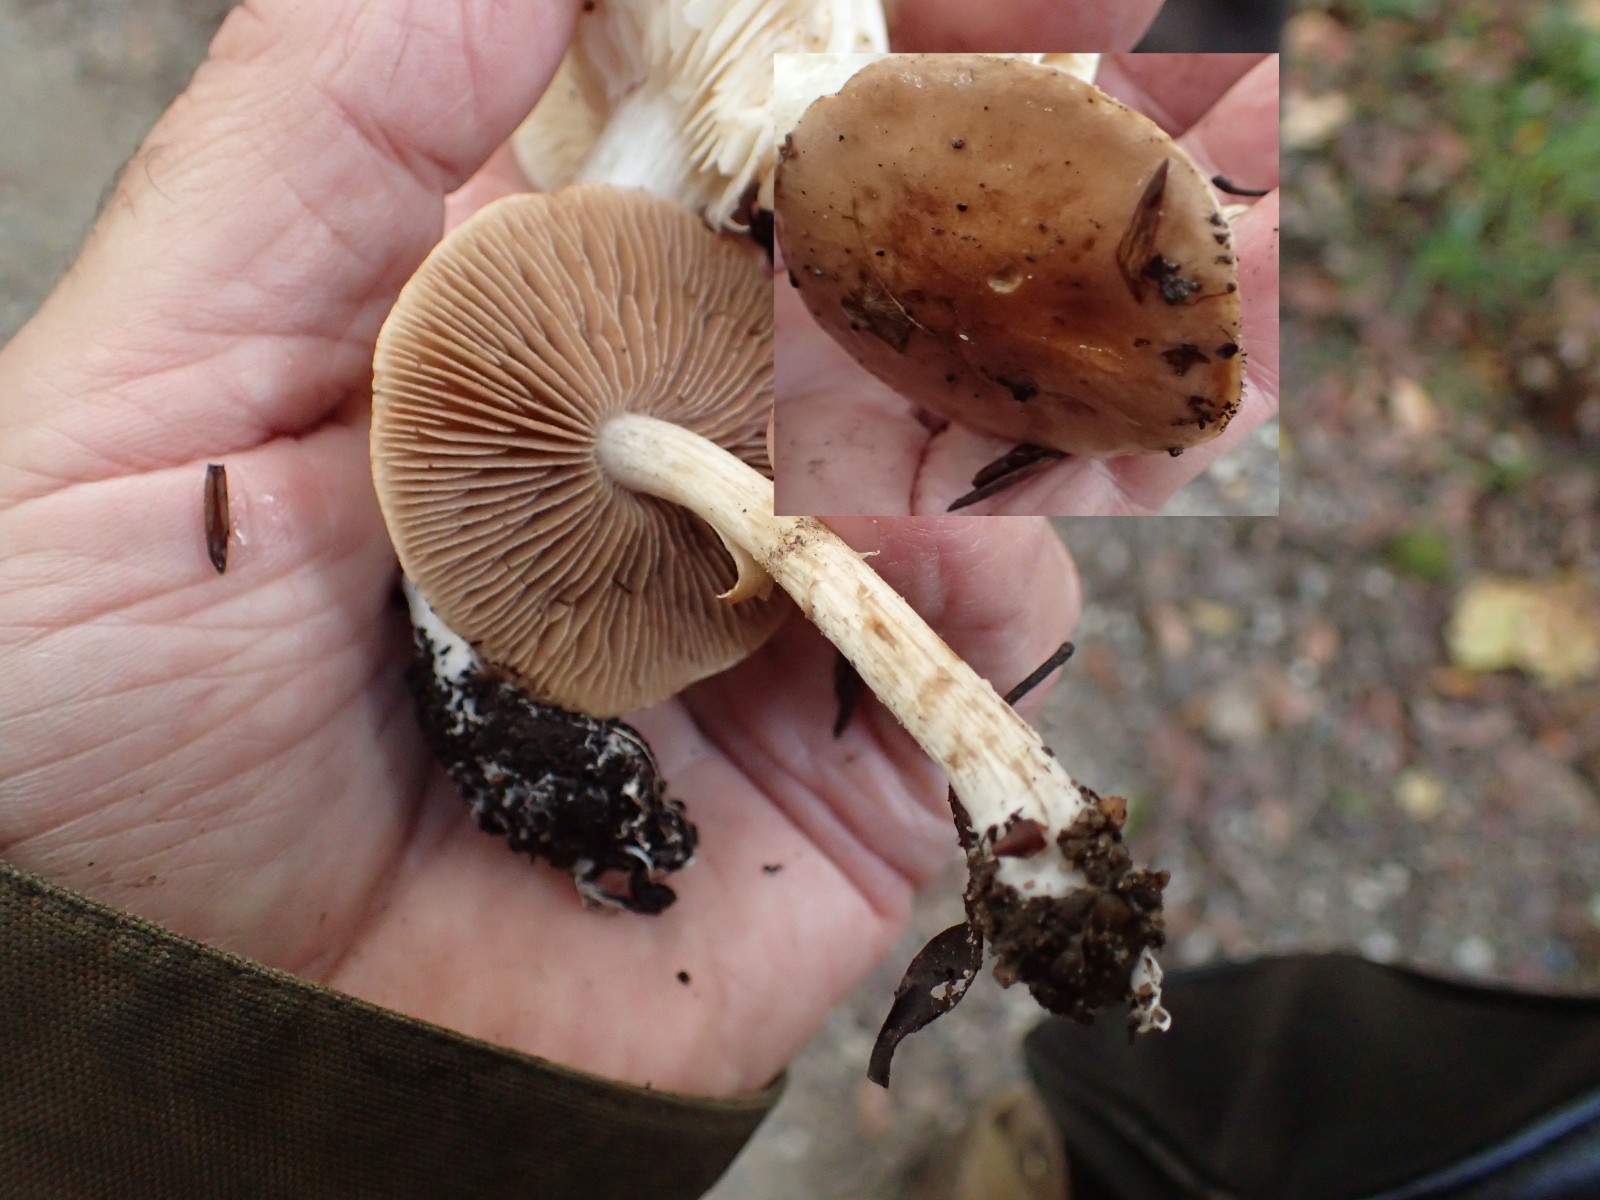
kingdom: Fungi
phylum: Basidiomycota
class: Agaricomycetes
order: Agaricales
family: Hymenogastraceae
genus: Hebeloma
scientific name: Hebeloma
